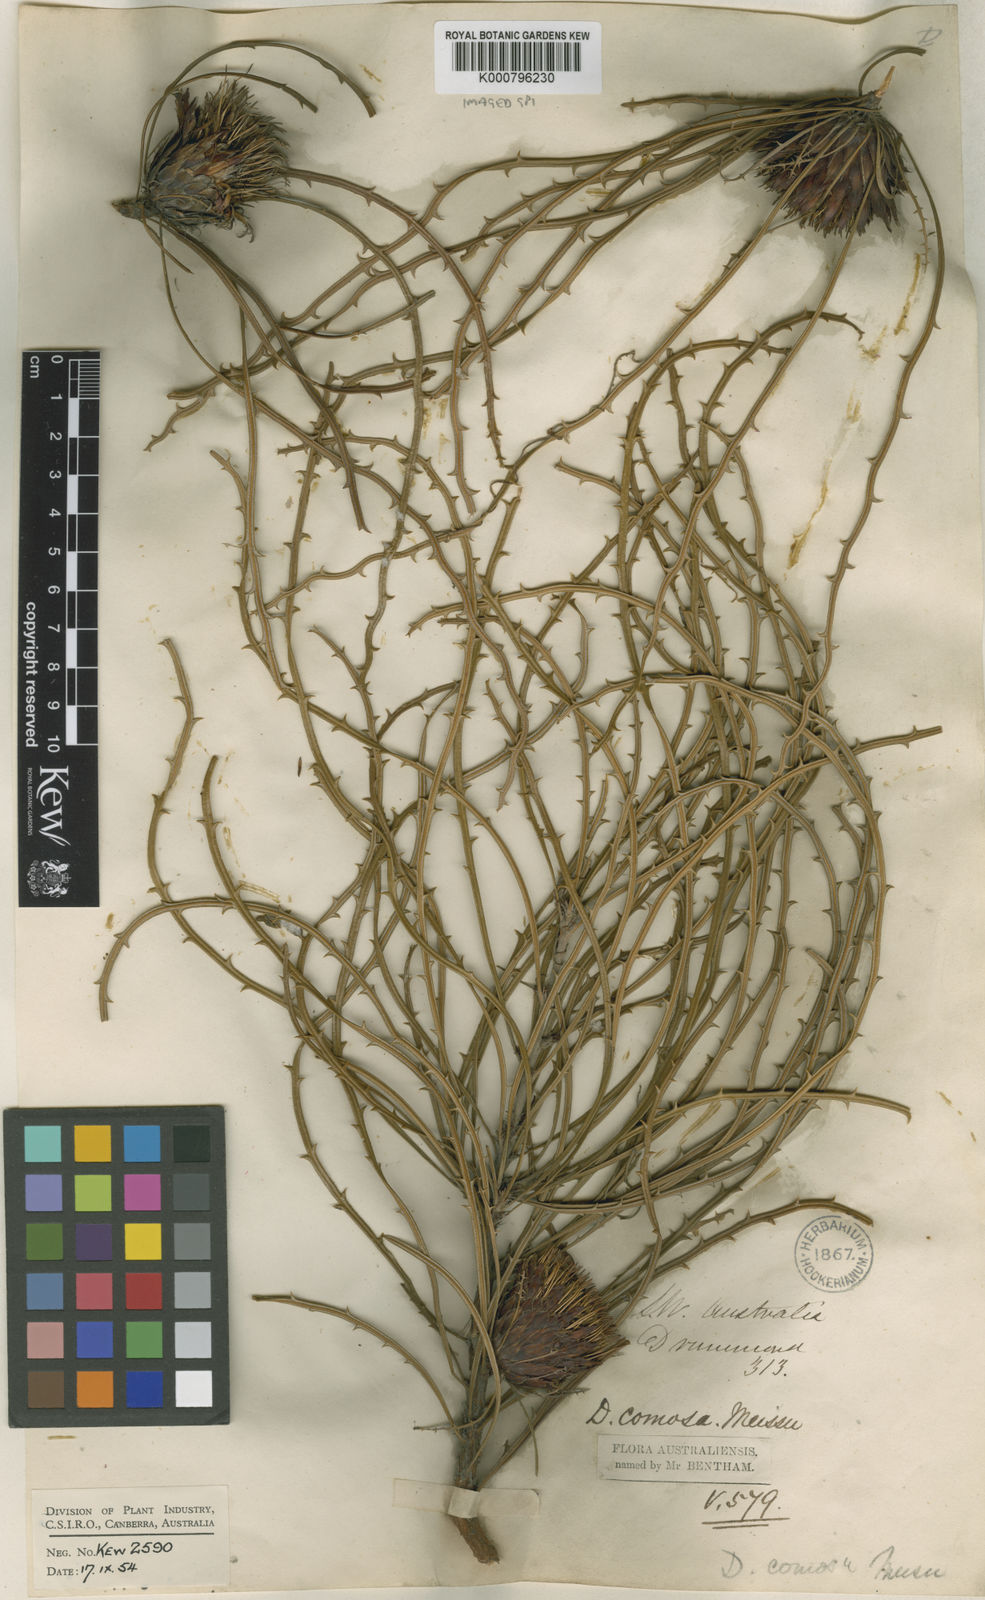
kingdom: Plantae
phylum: Tracheophyta
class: Magnoliopsida
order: Proteales
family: Proteaceae
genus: Banksia
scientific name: Banksia comosa
